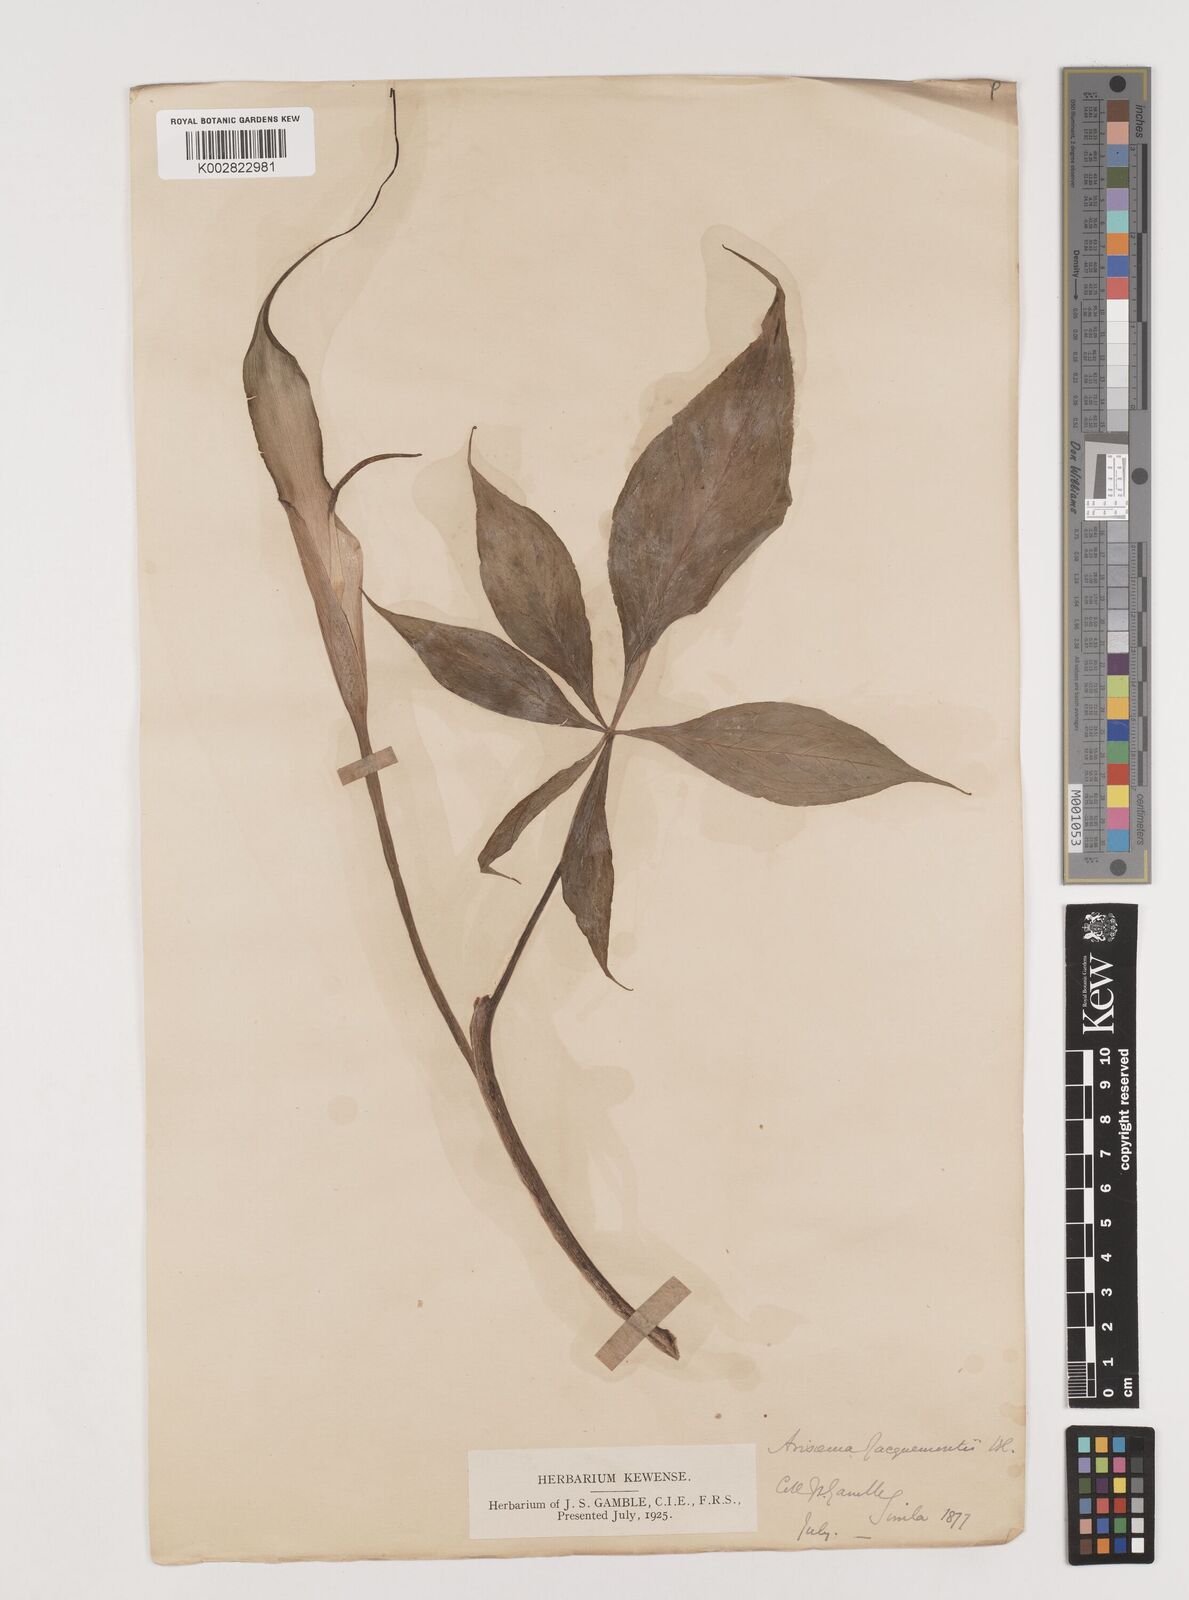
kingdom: Plantae
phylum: Tracheophyta
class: Liliopsida
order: Alismatales
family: Araceae
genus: Arisaema
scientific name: Arisaema jacquemontii
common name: Jacquemont's cobra-lily
